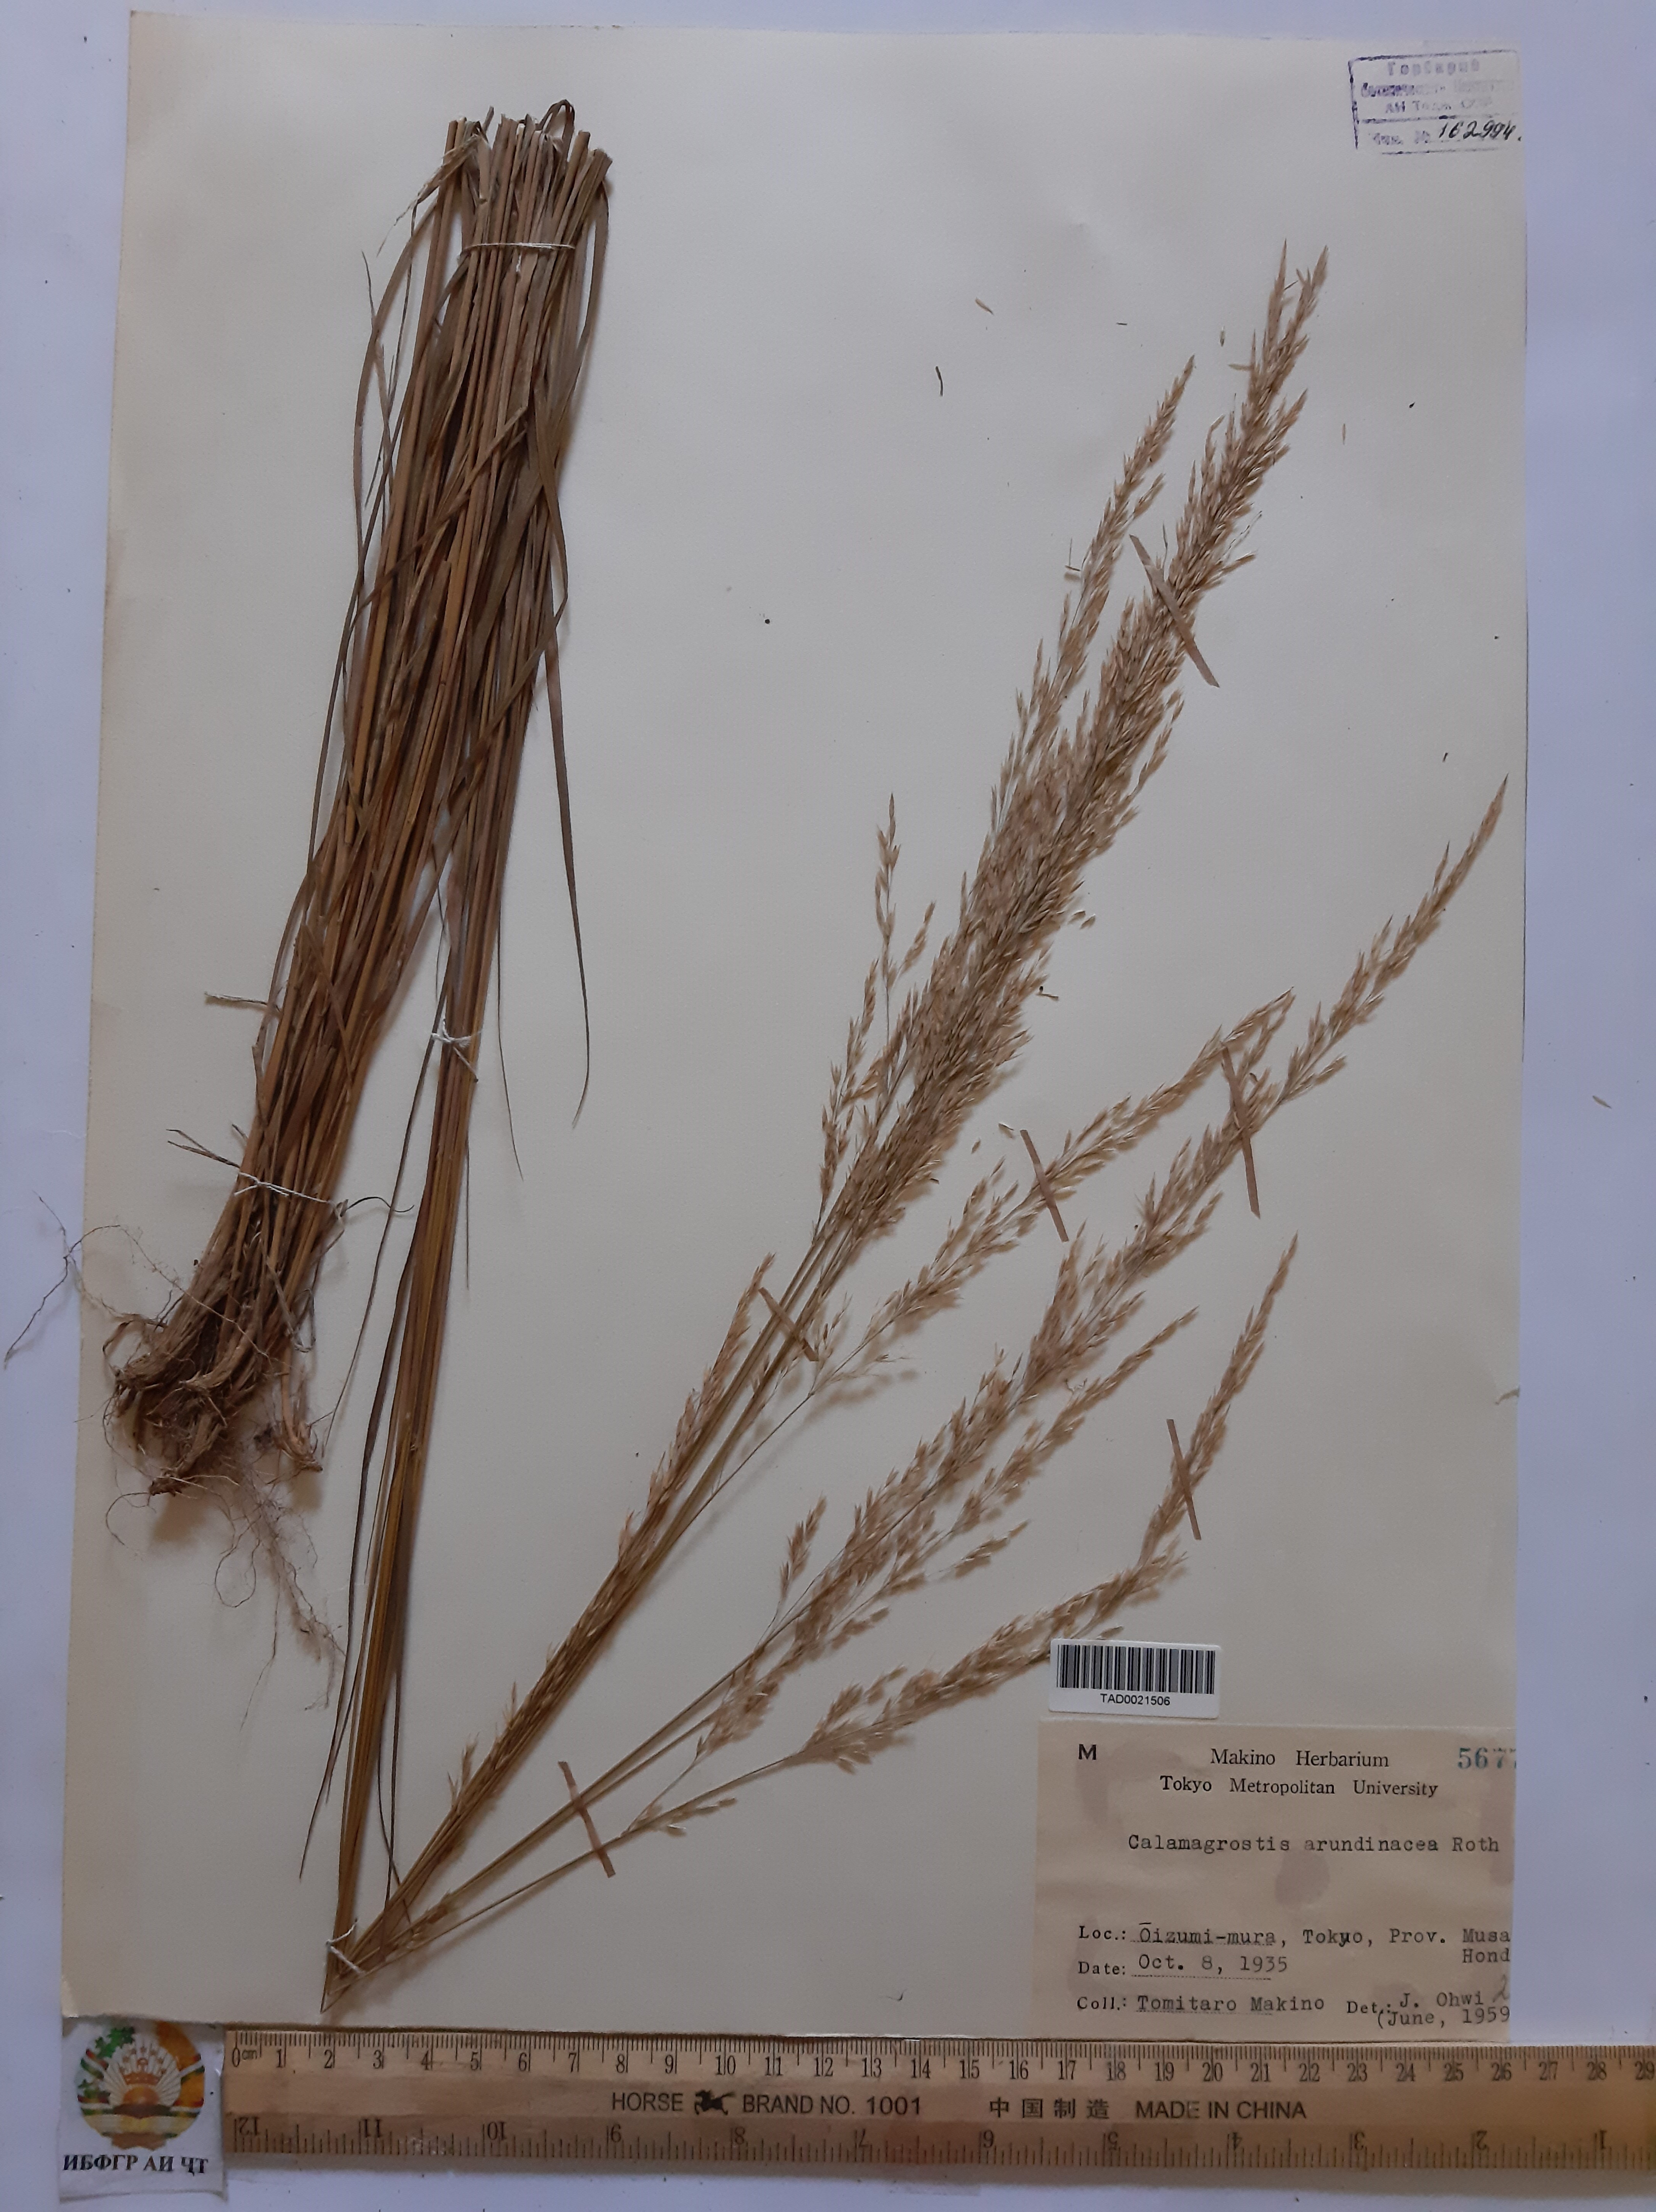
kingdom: Plantae
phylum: Tracheophyta
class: Liliopsida
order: Poales
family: Poaceae
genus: Calamagrostis
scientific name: Calamagrostis arundinacea
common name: Metskastik
